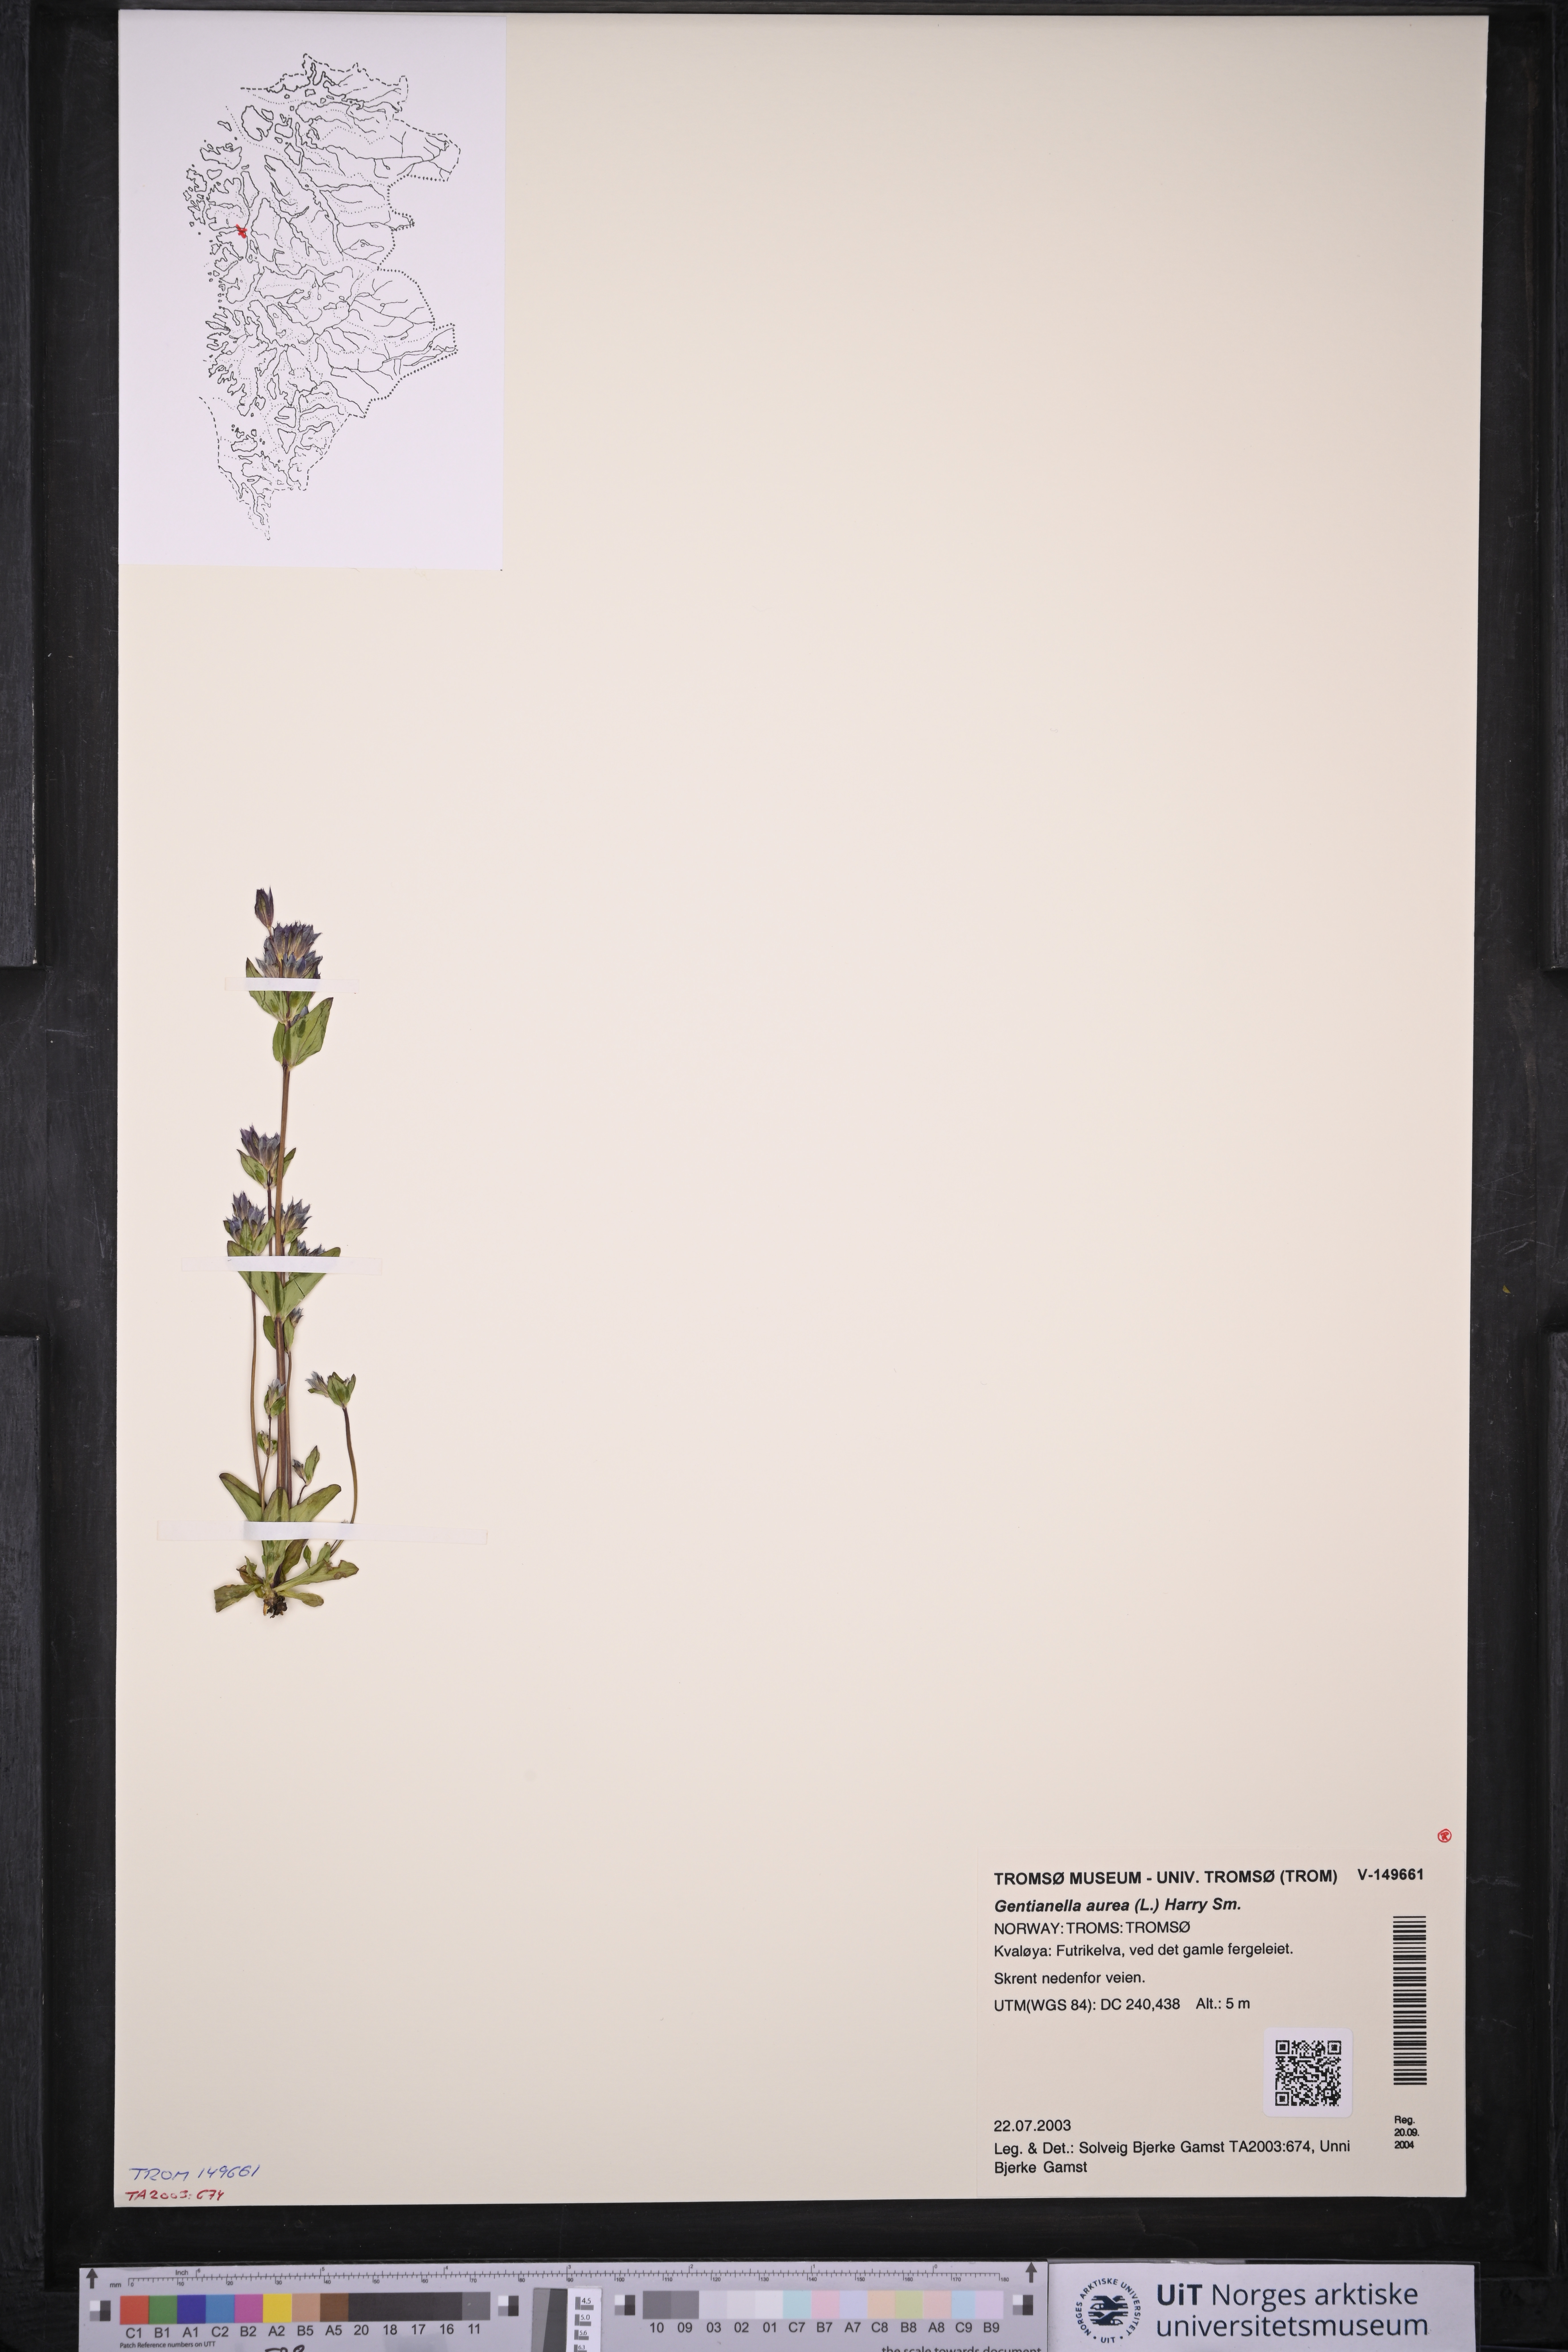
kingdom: Plantae
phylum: Tracheophyta
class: Magnoliopsida
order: Gentianales
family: Gentianaceae
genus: Gentianella
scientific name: Gentianella aurea
